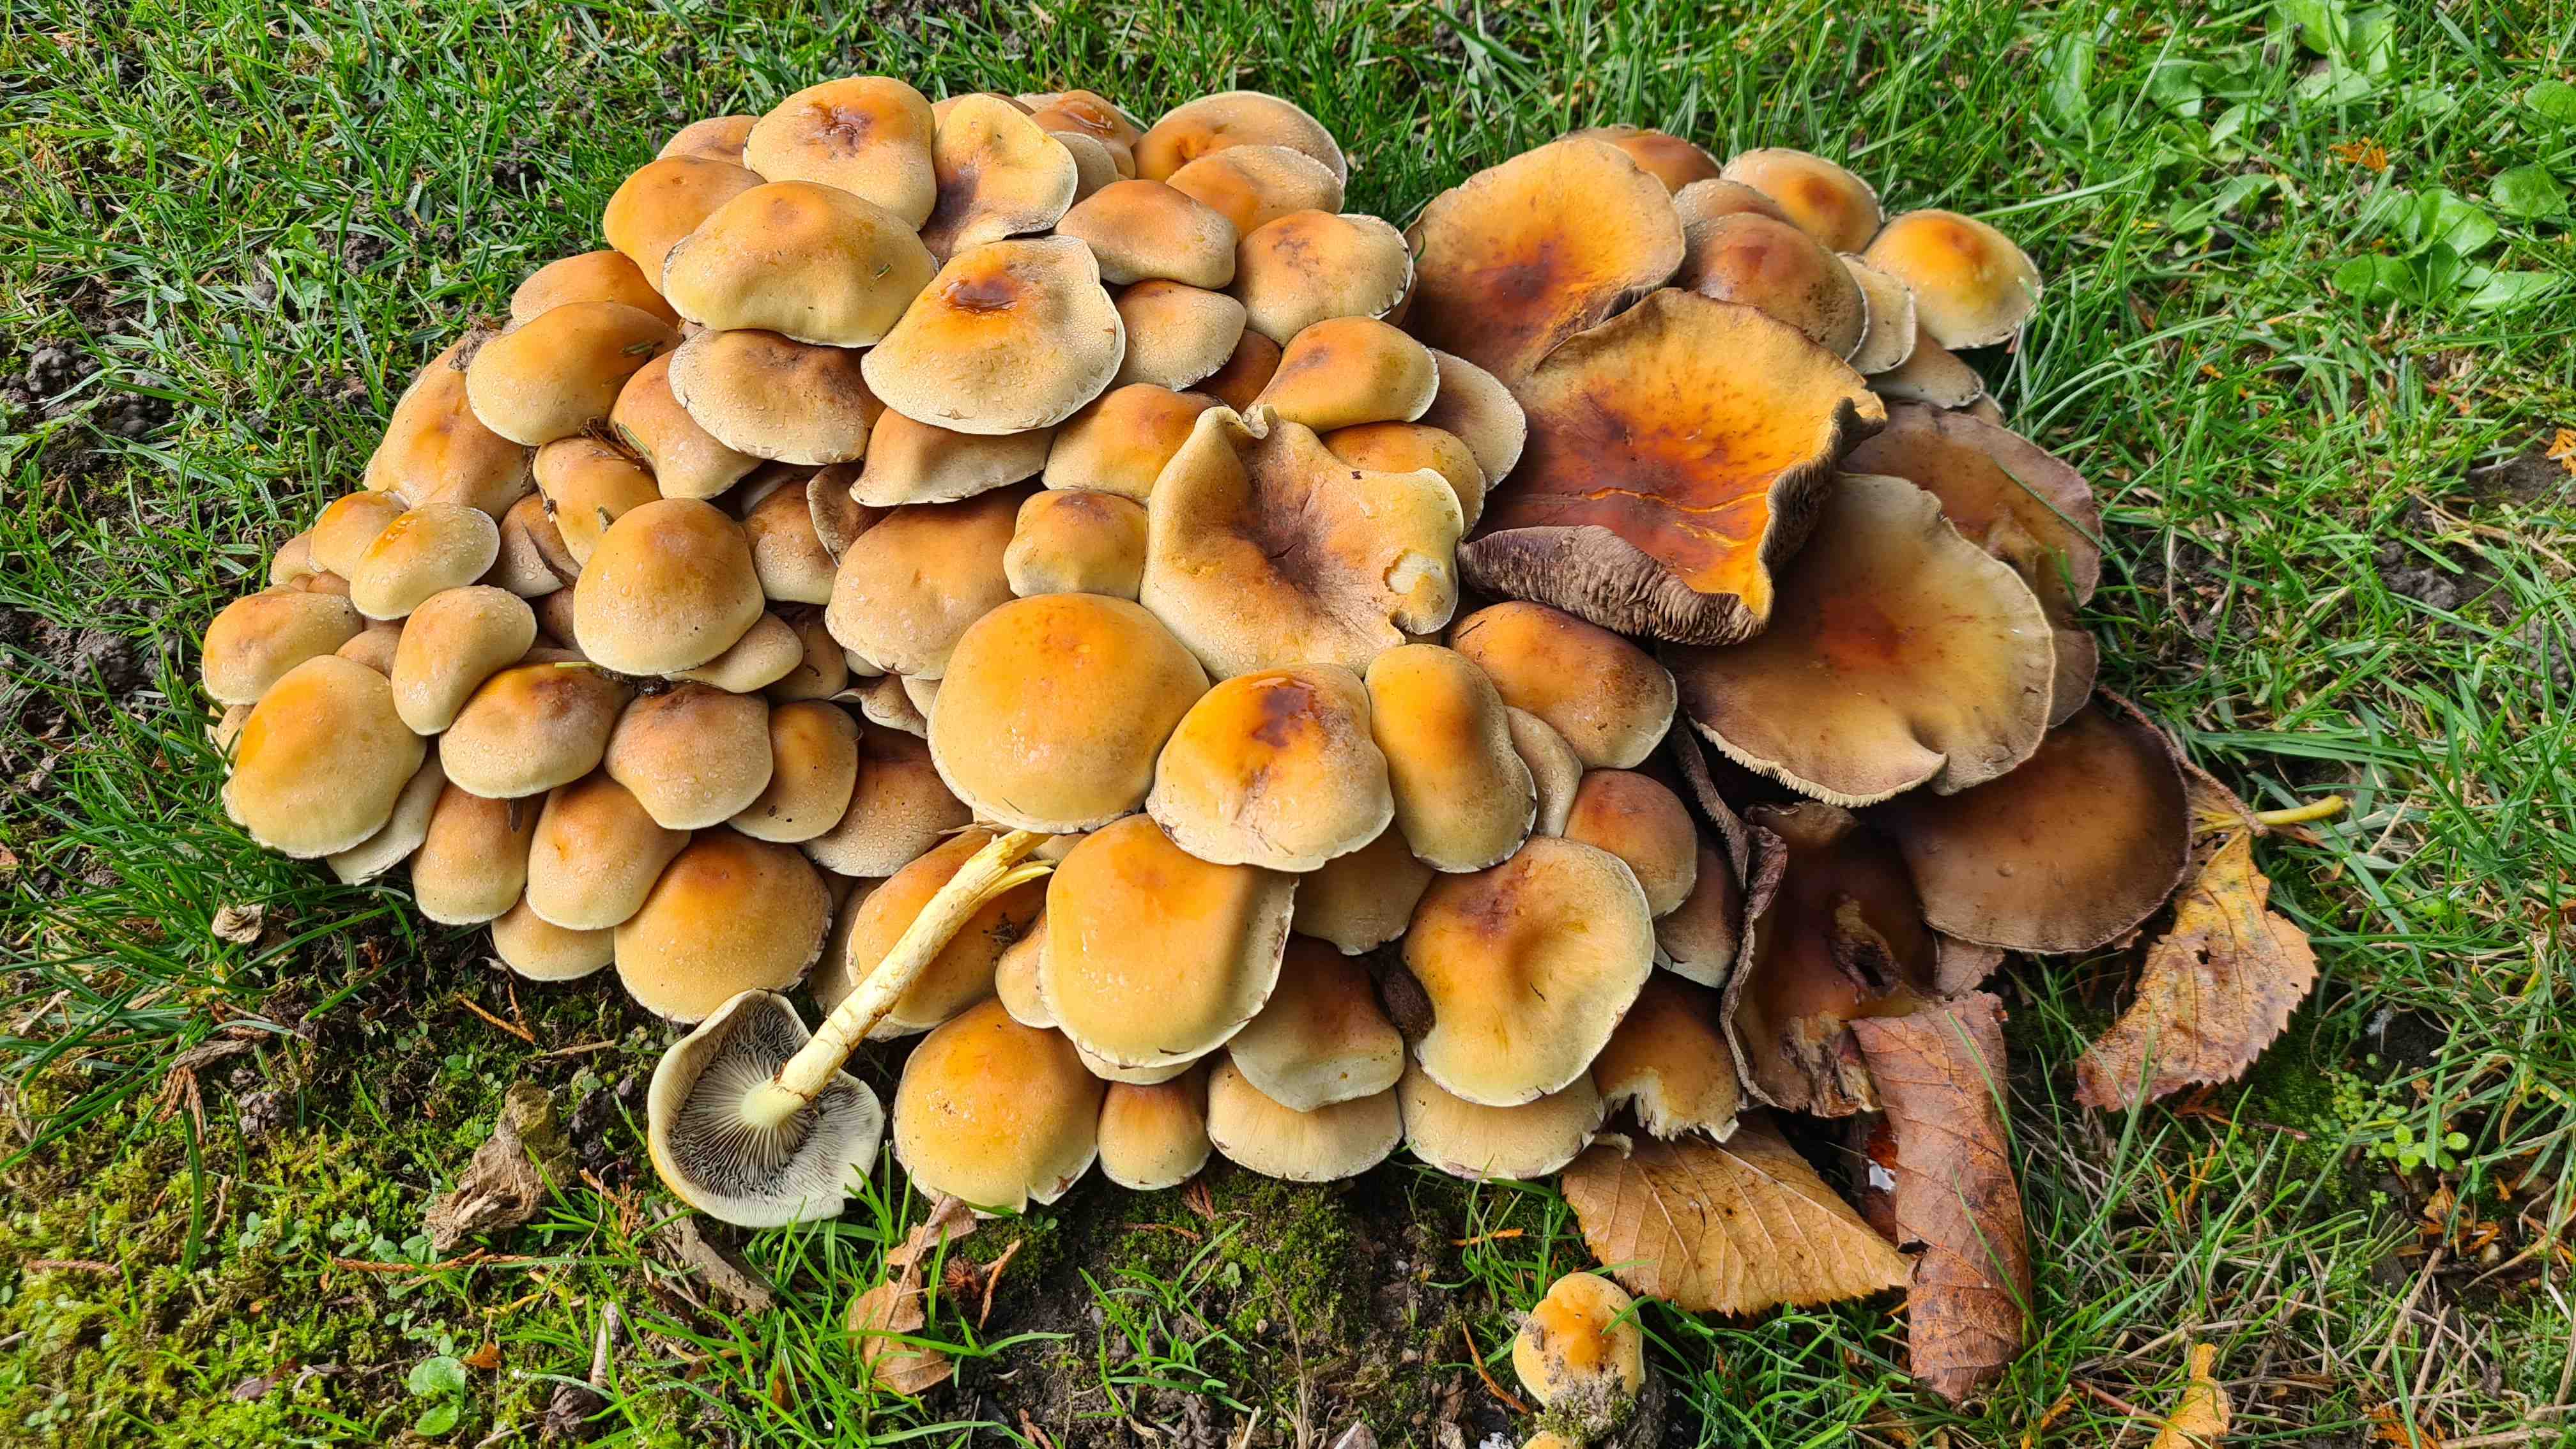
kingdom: Fungi
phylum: Basidiomycota
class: Agaricomycetes
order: Agaricales
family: Strophariaceae
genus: Hypholoma
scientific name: Hypholoma capnoides
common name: gran-svovlhat
